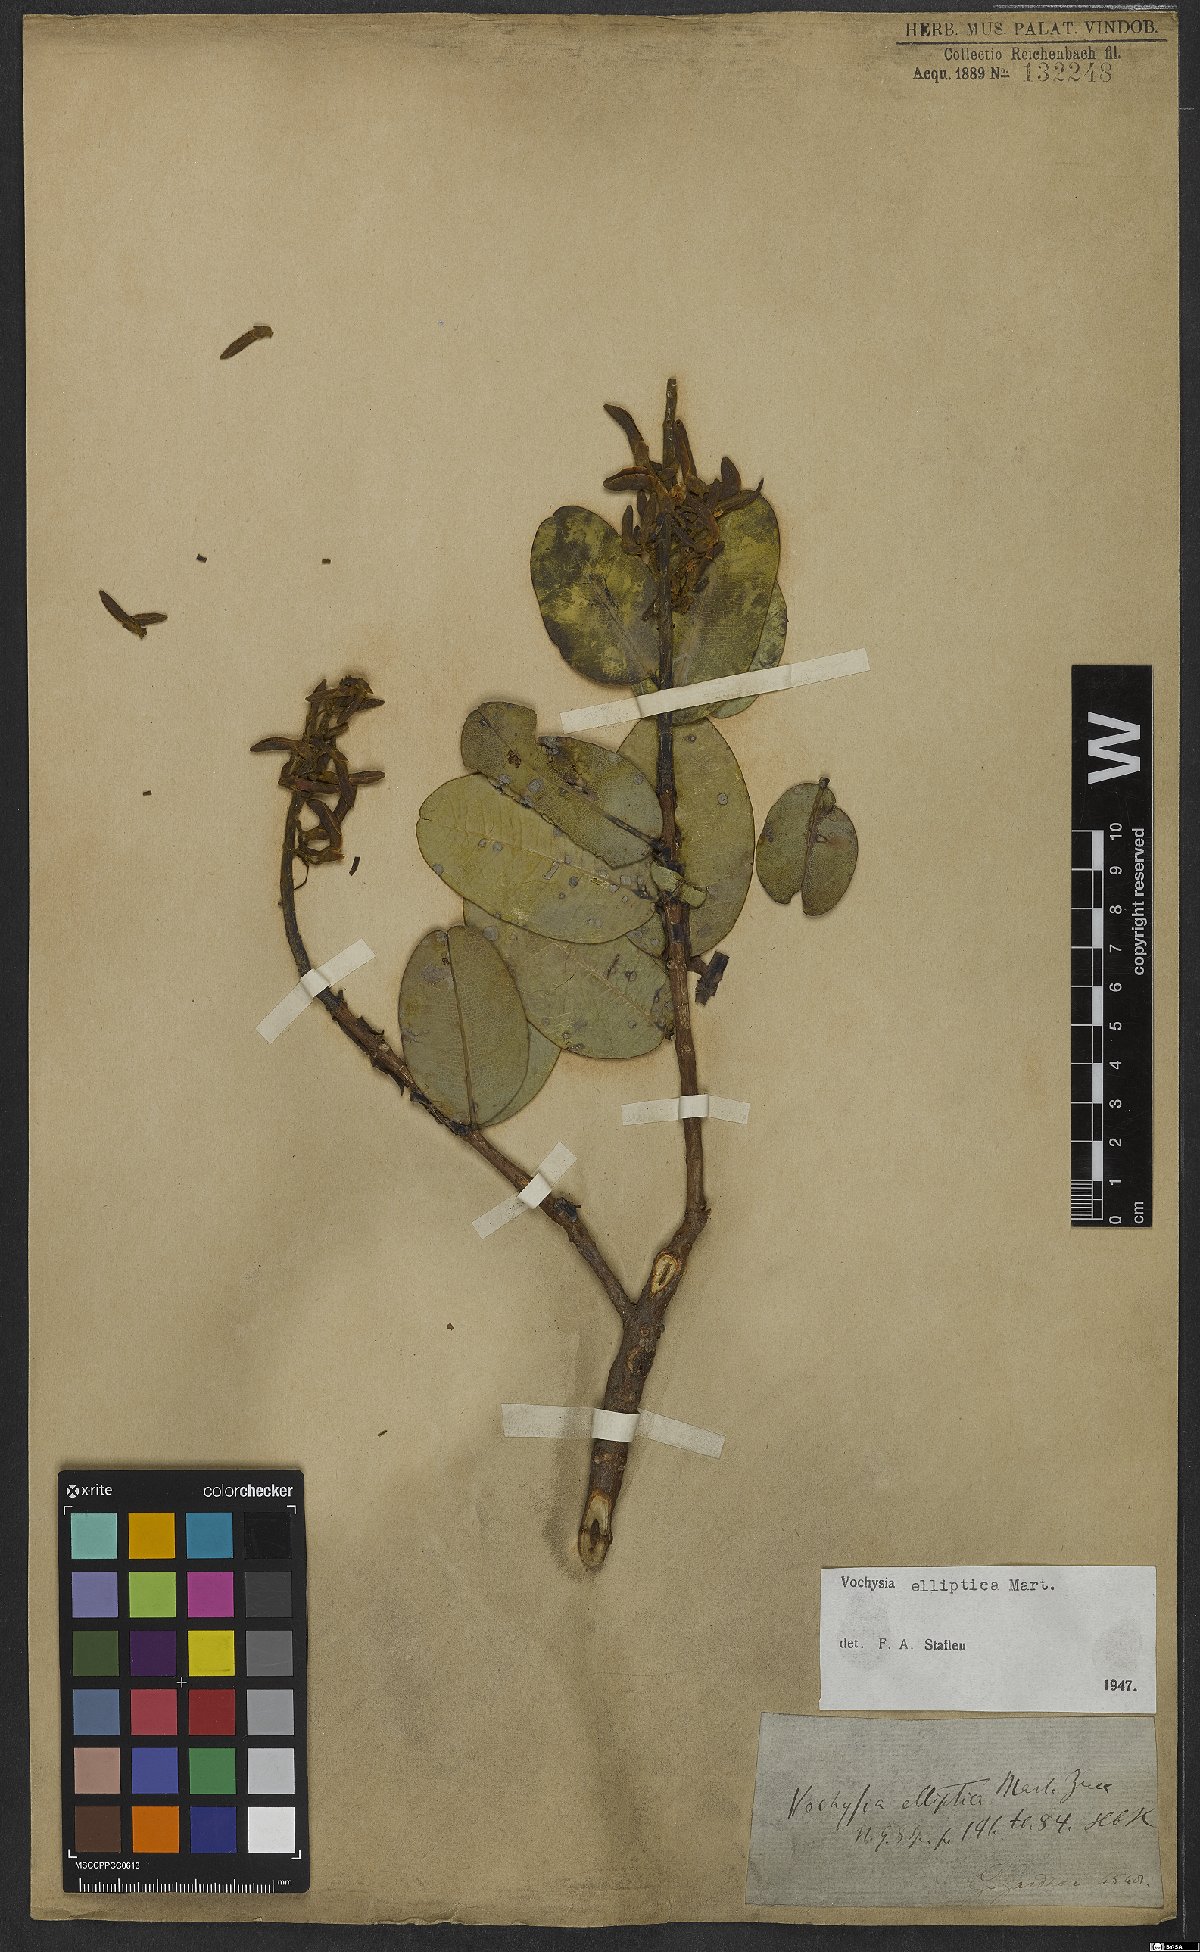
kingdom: Plantae
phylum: Tracheophyta
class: Magnoliopsida
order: Myrtales
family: Vochysiaceae
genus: Vochysia
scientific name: Vochysia elliptica
